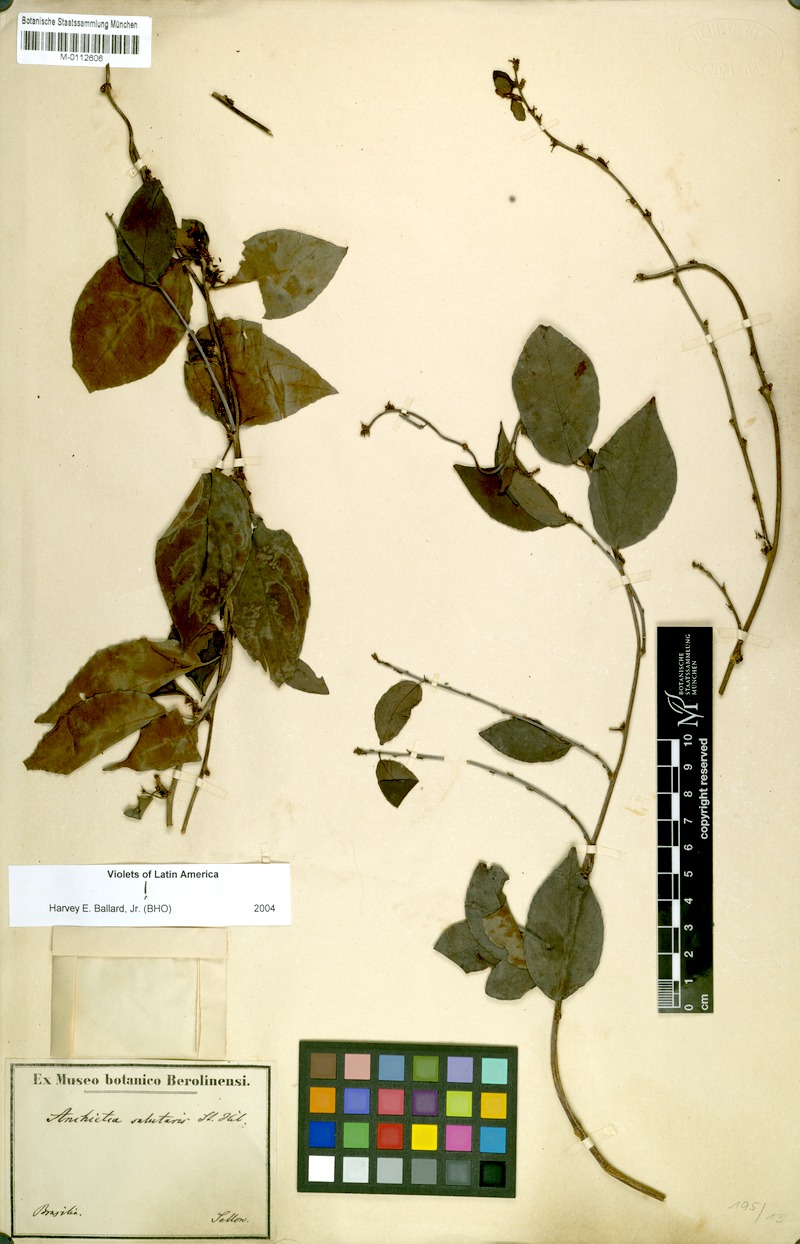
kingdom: Plantae
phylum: Tracheophyta
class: Magnoliopsida
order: Malpighiales
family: Violaceae
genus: Anchietea
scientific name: Anchietea pyrifolia
